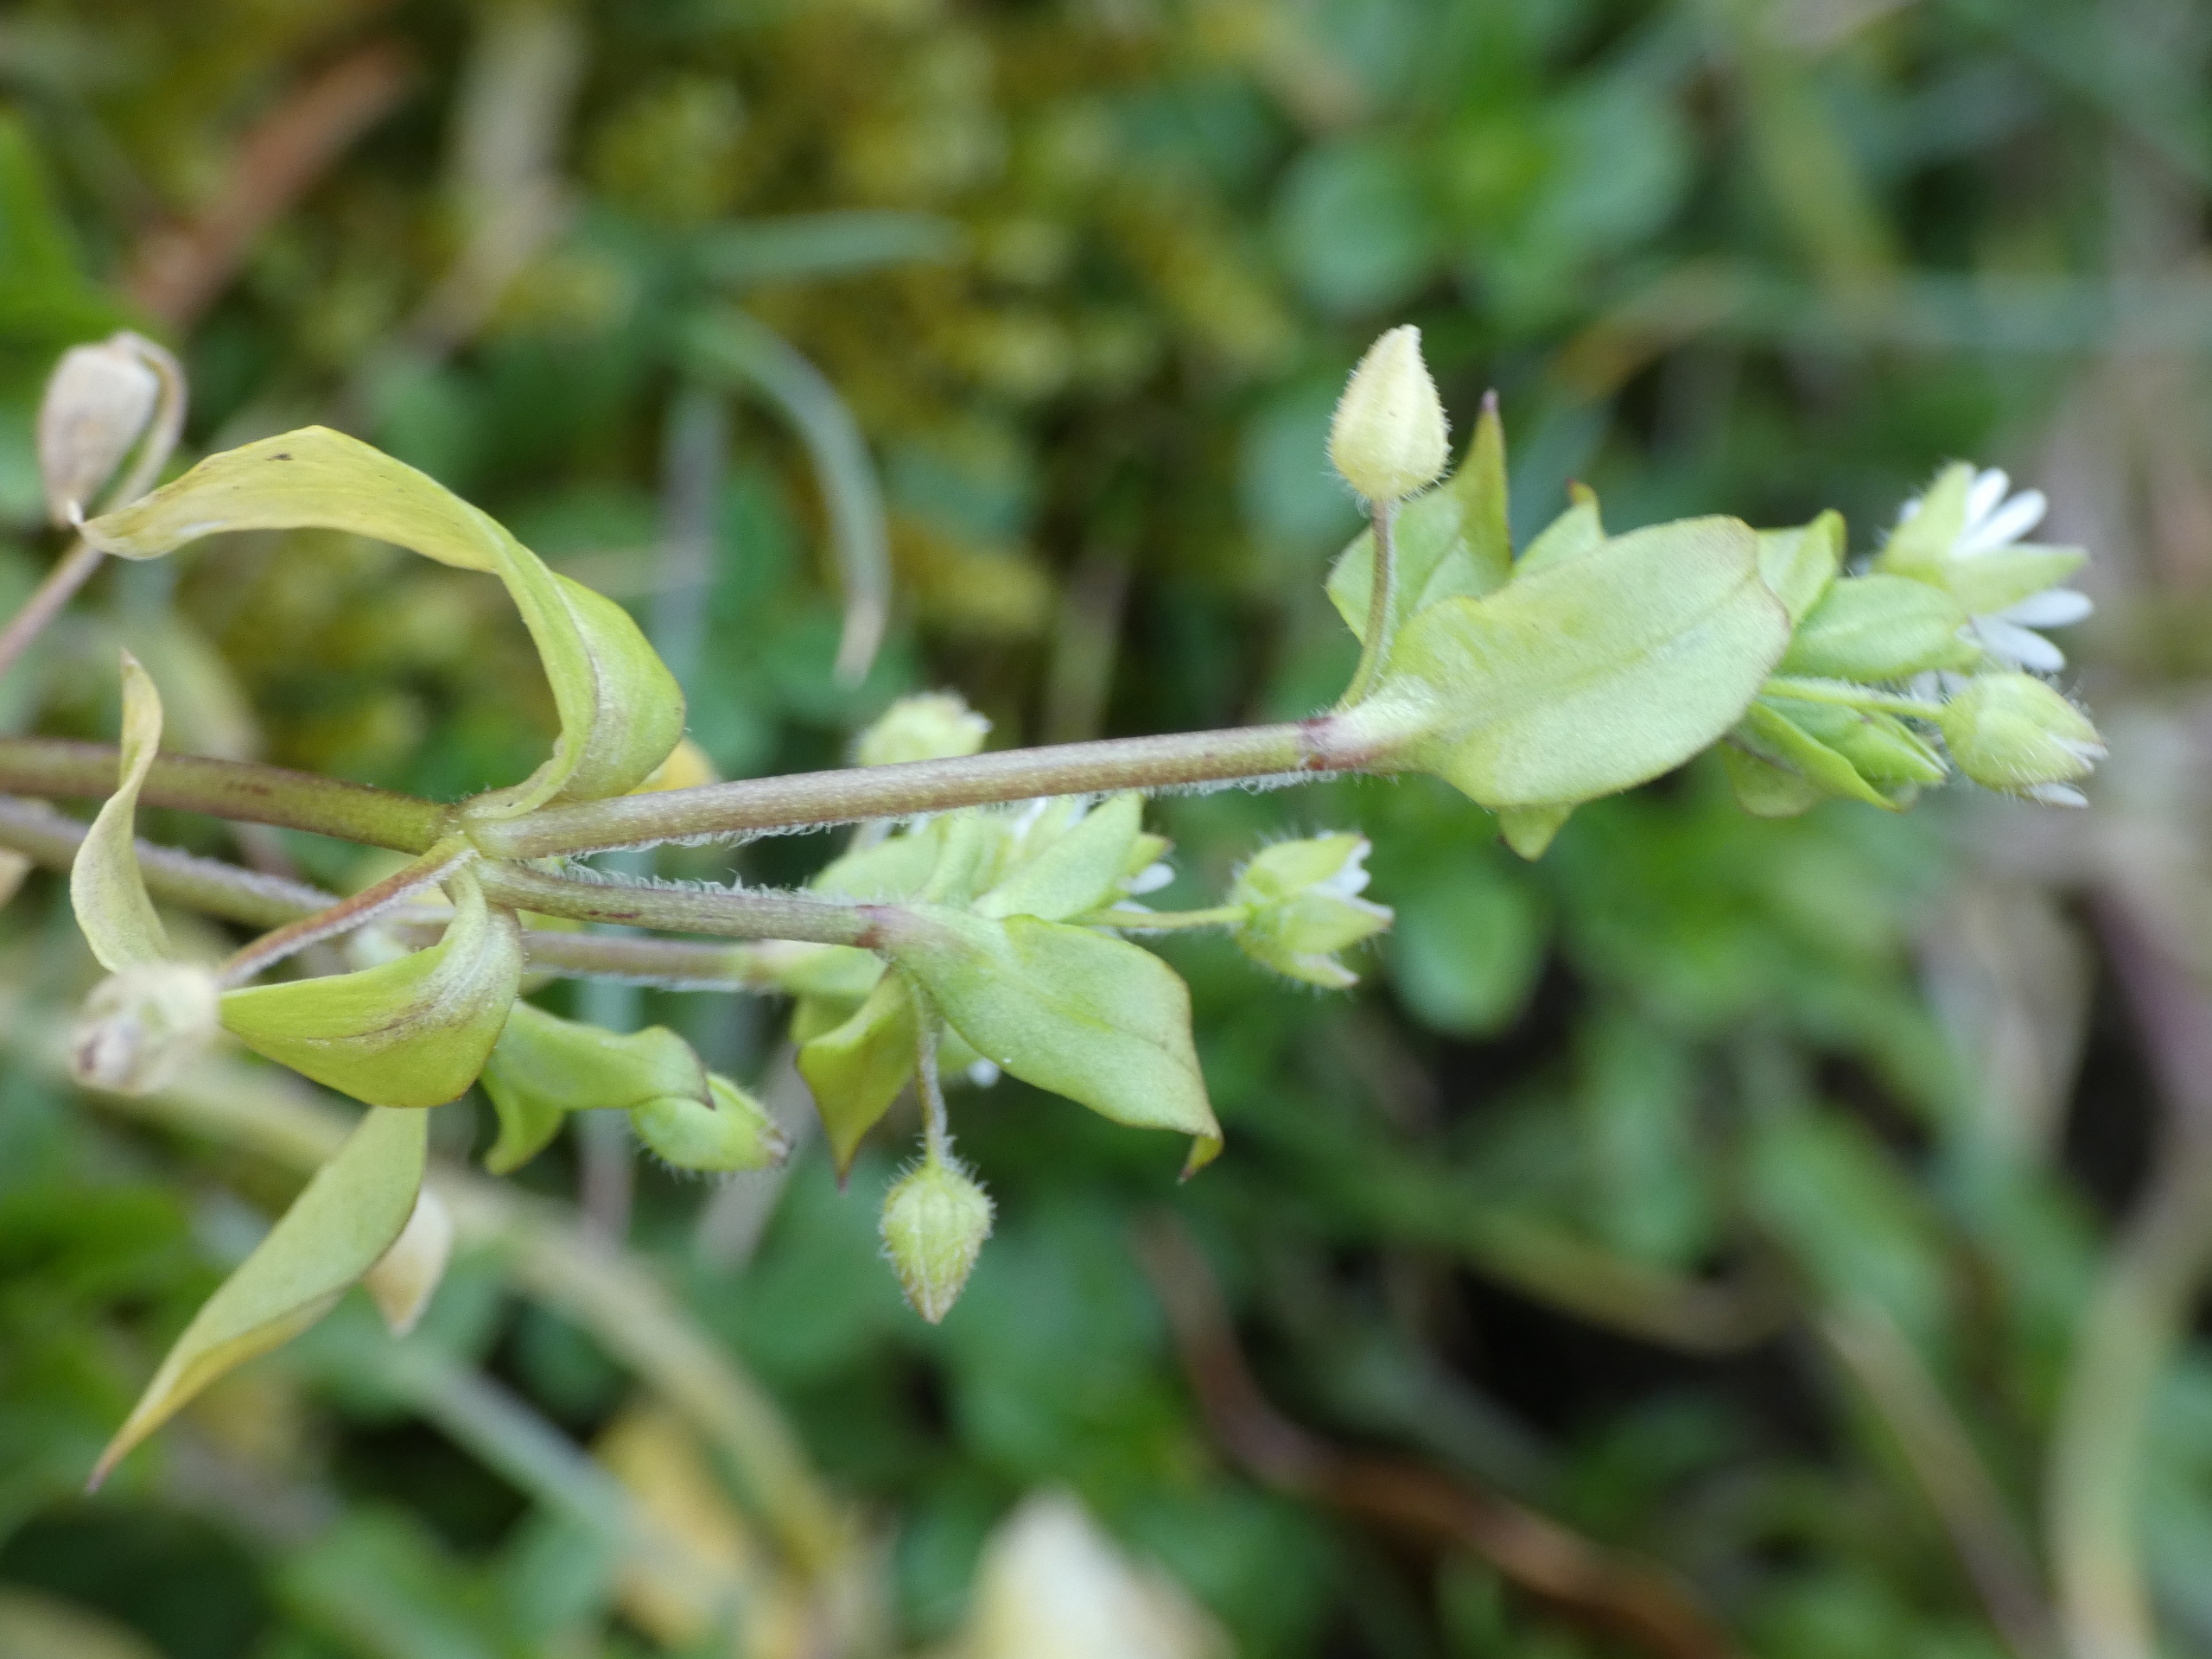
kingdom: Plantae
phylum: Tracheophyta
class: Magnoliopsida
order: Caryophyllales
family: Caryophyllaceae
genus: Stellaria
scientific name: Stellaria media
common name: Almindelig fuglegræs
